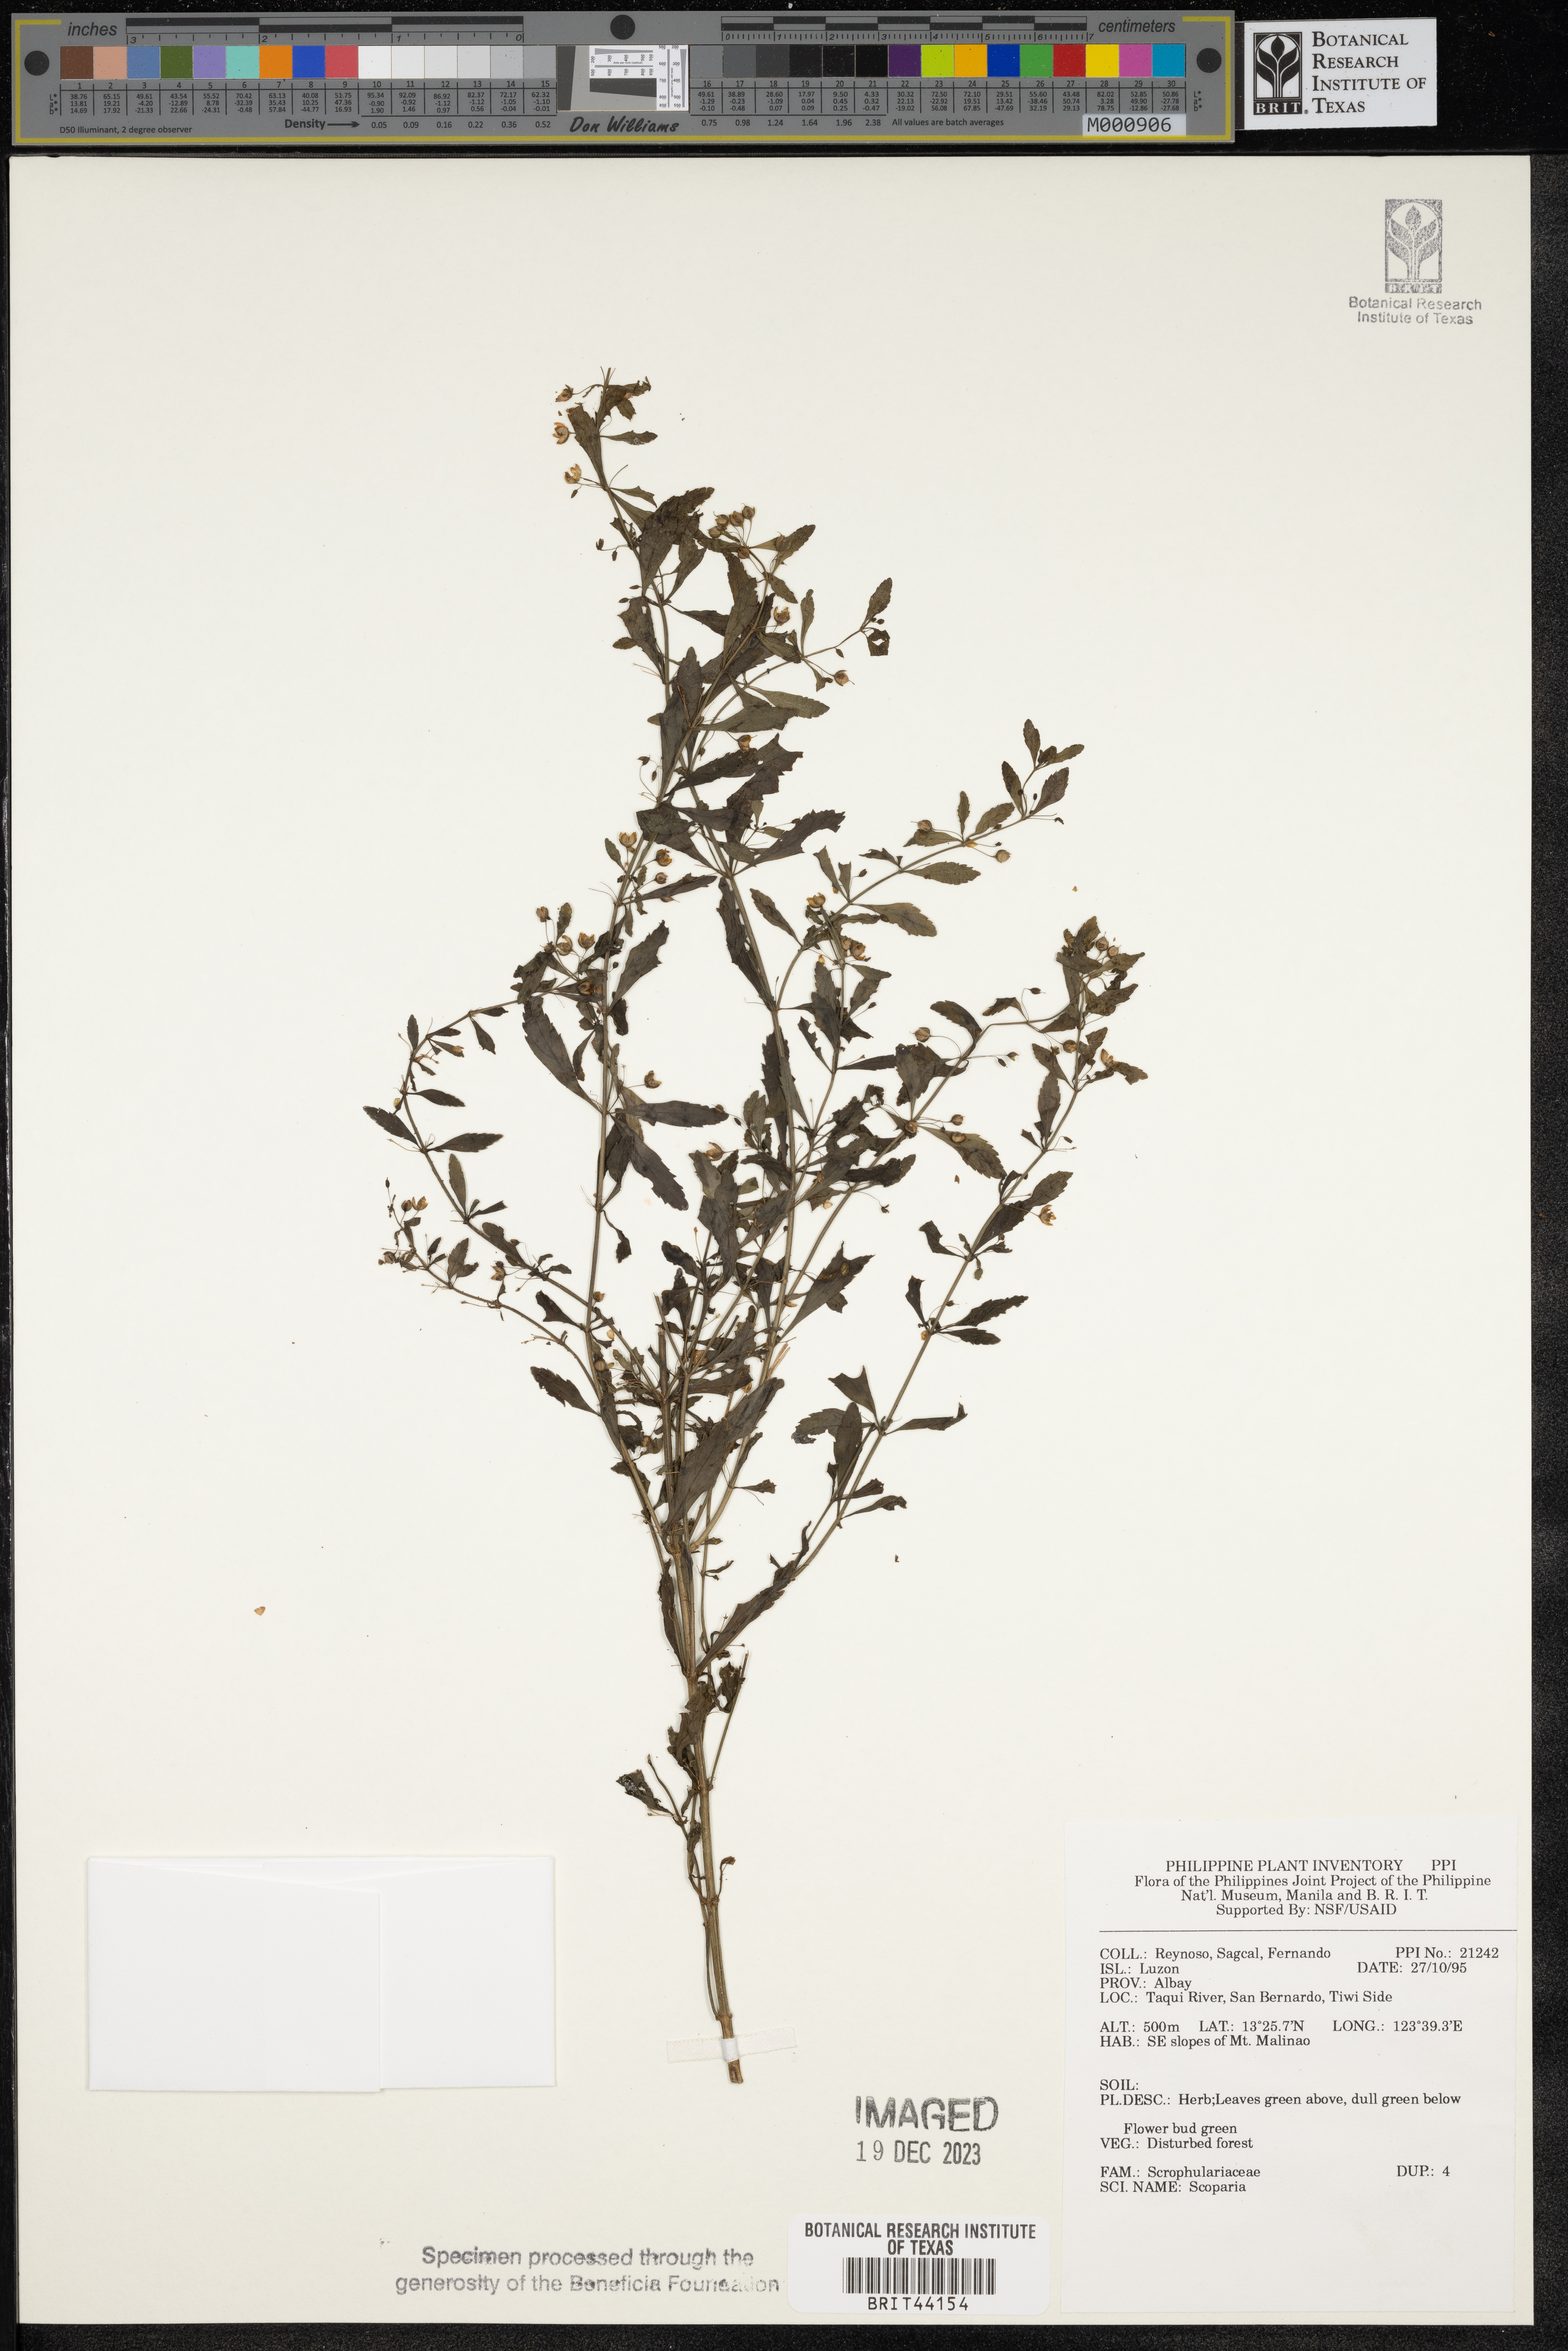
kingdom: Plantae
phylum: Tracheophyta
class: Magnoliopsida
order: Lamiales
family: Plantaginaceae
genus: Scoparia
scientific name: Scoparia
